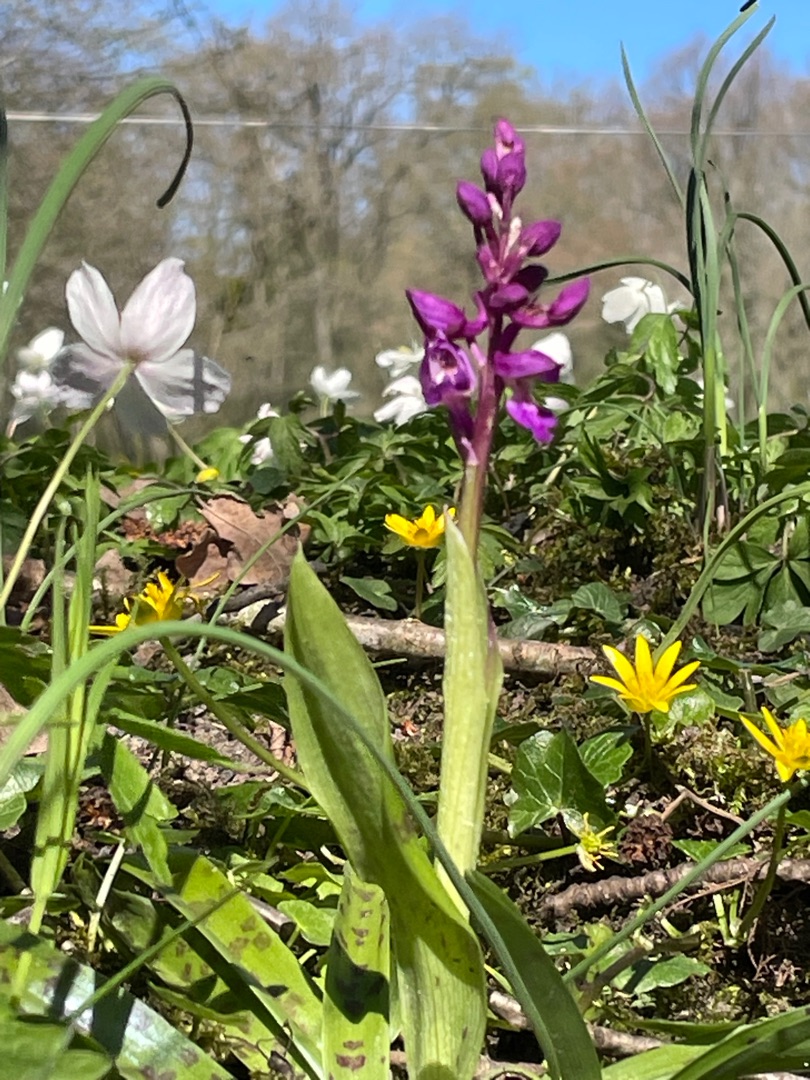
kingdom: Plantae
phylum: Tracheophyta
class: Liliopsida
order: Asparagales
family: Orchidaceae
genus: Orchis
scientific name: Orchis mascula
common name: Tyndakset gøgeurt
